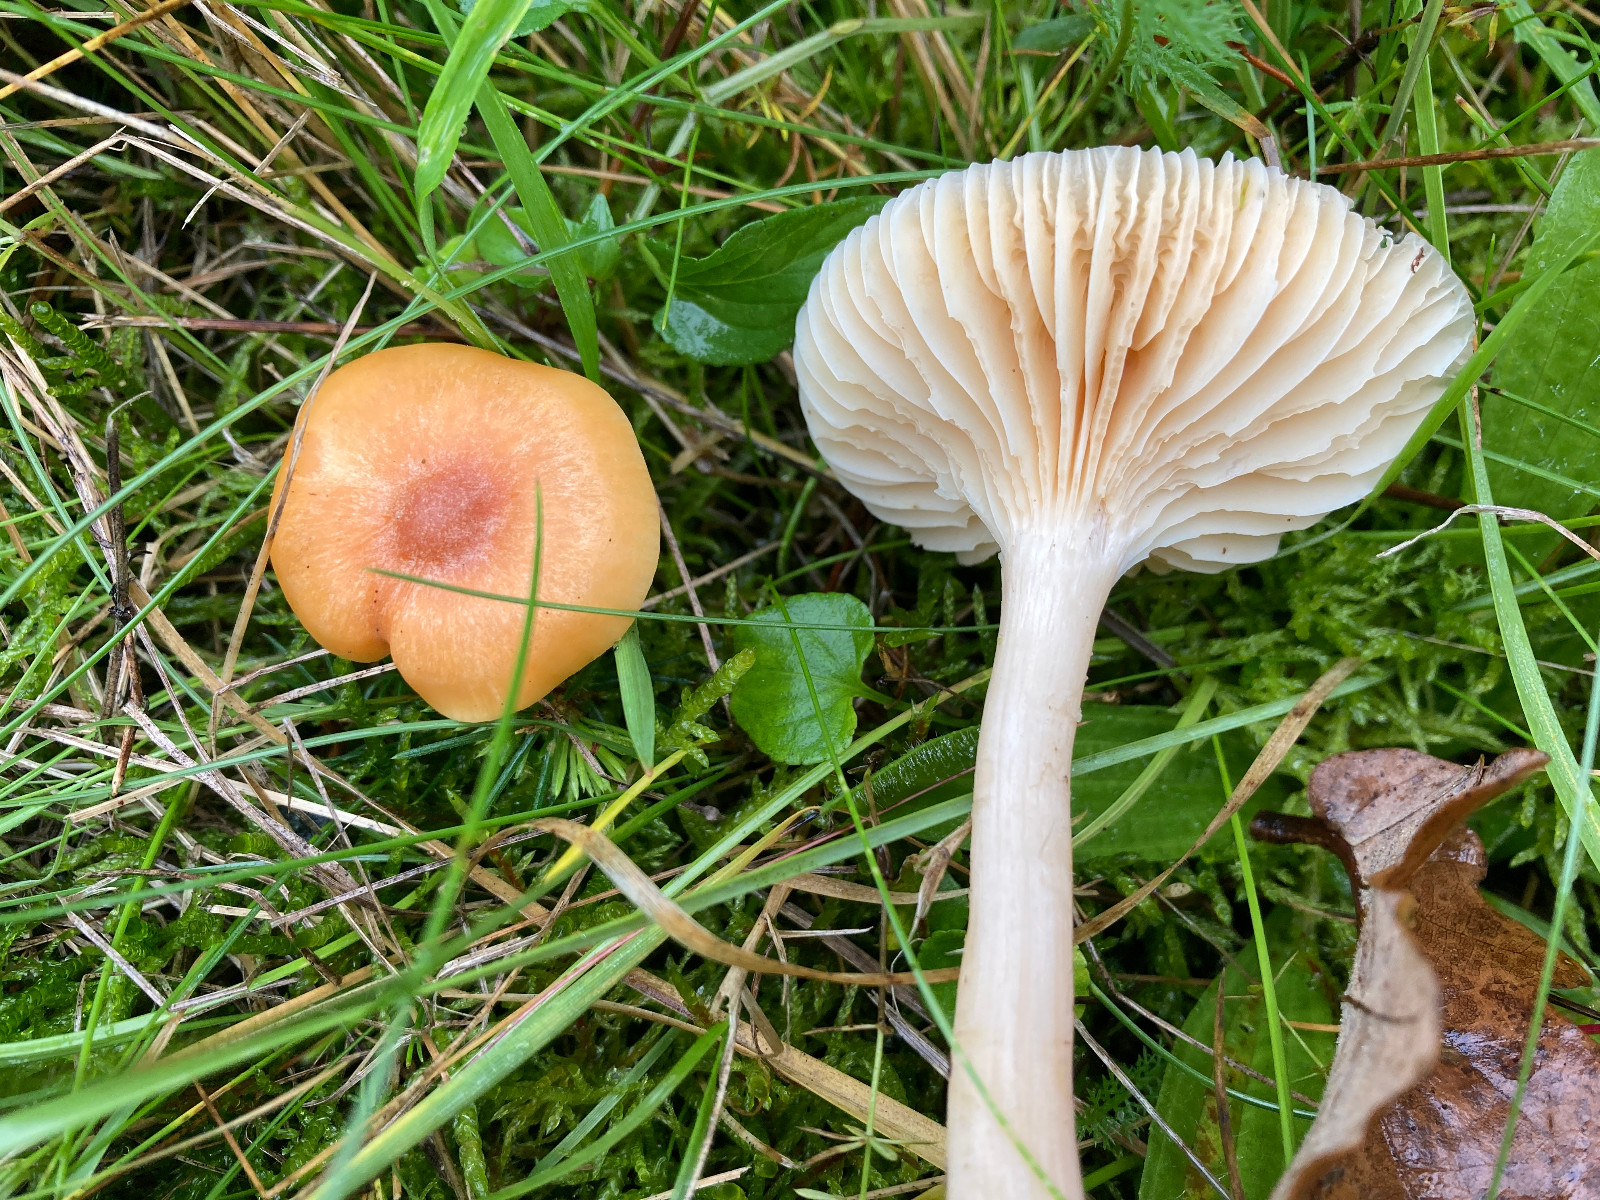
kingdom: Fungi
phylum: Basidiomycota
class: Agaricomycetes
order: Agaricales
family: Hygrophoraceae
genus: Cuphophyllus
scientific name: Cuphophyllus pratensis
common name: eng-vokshat
